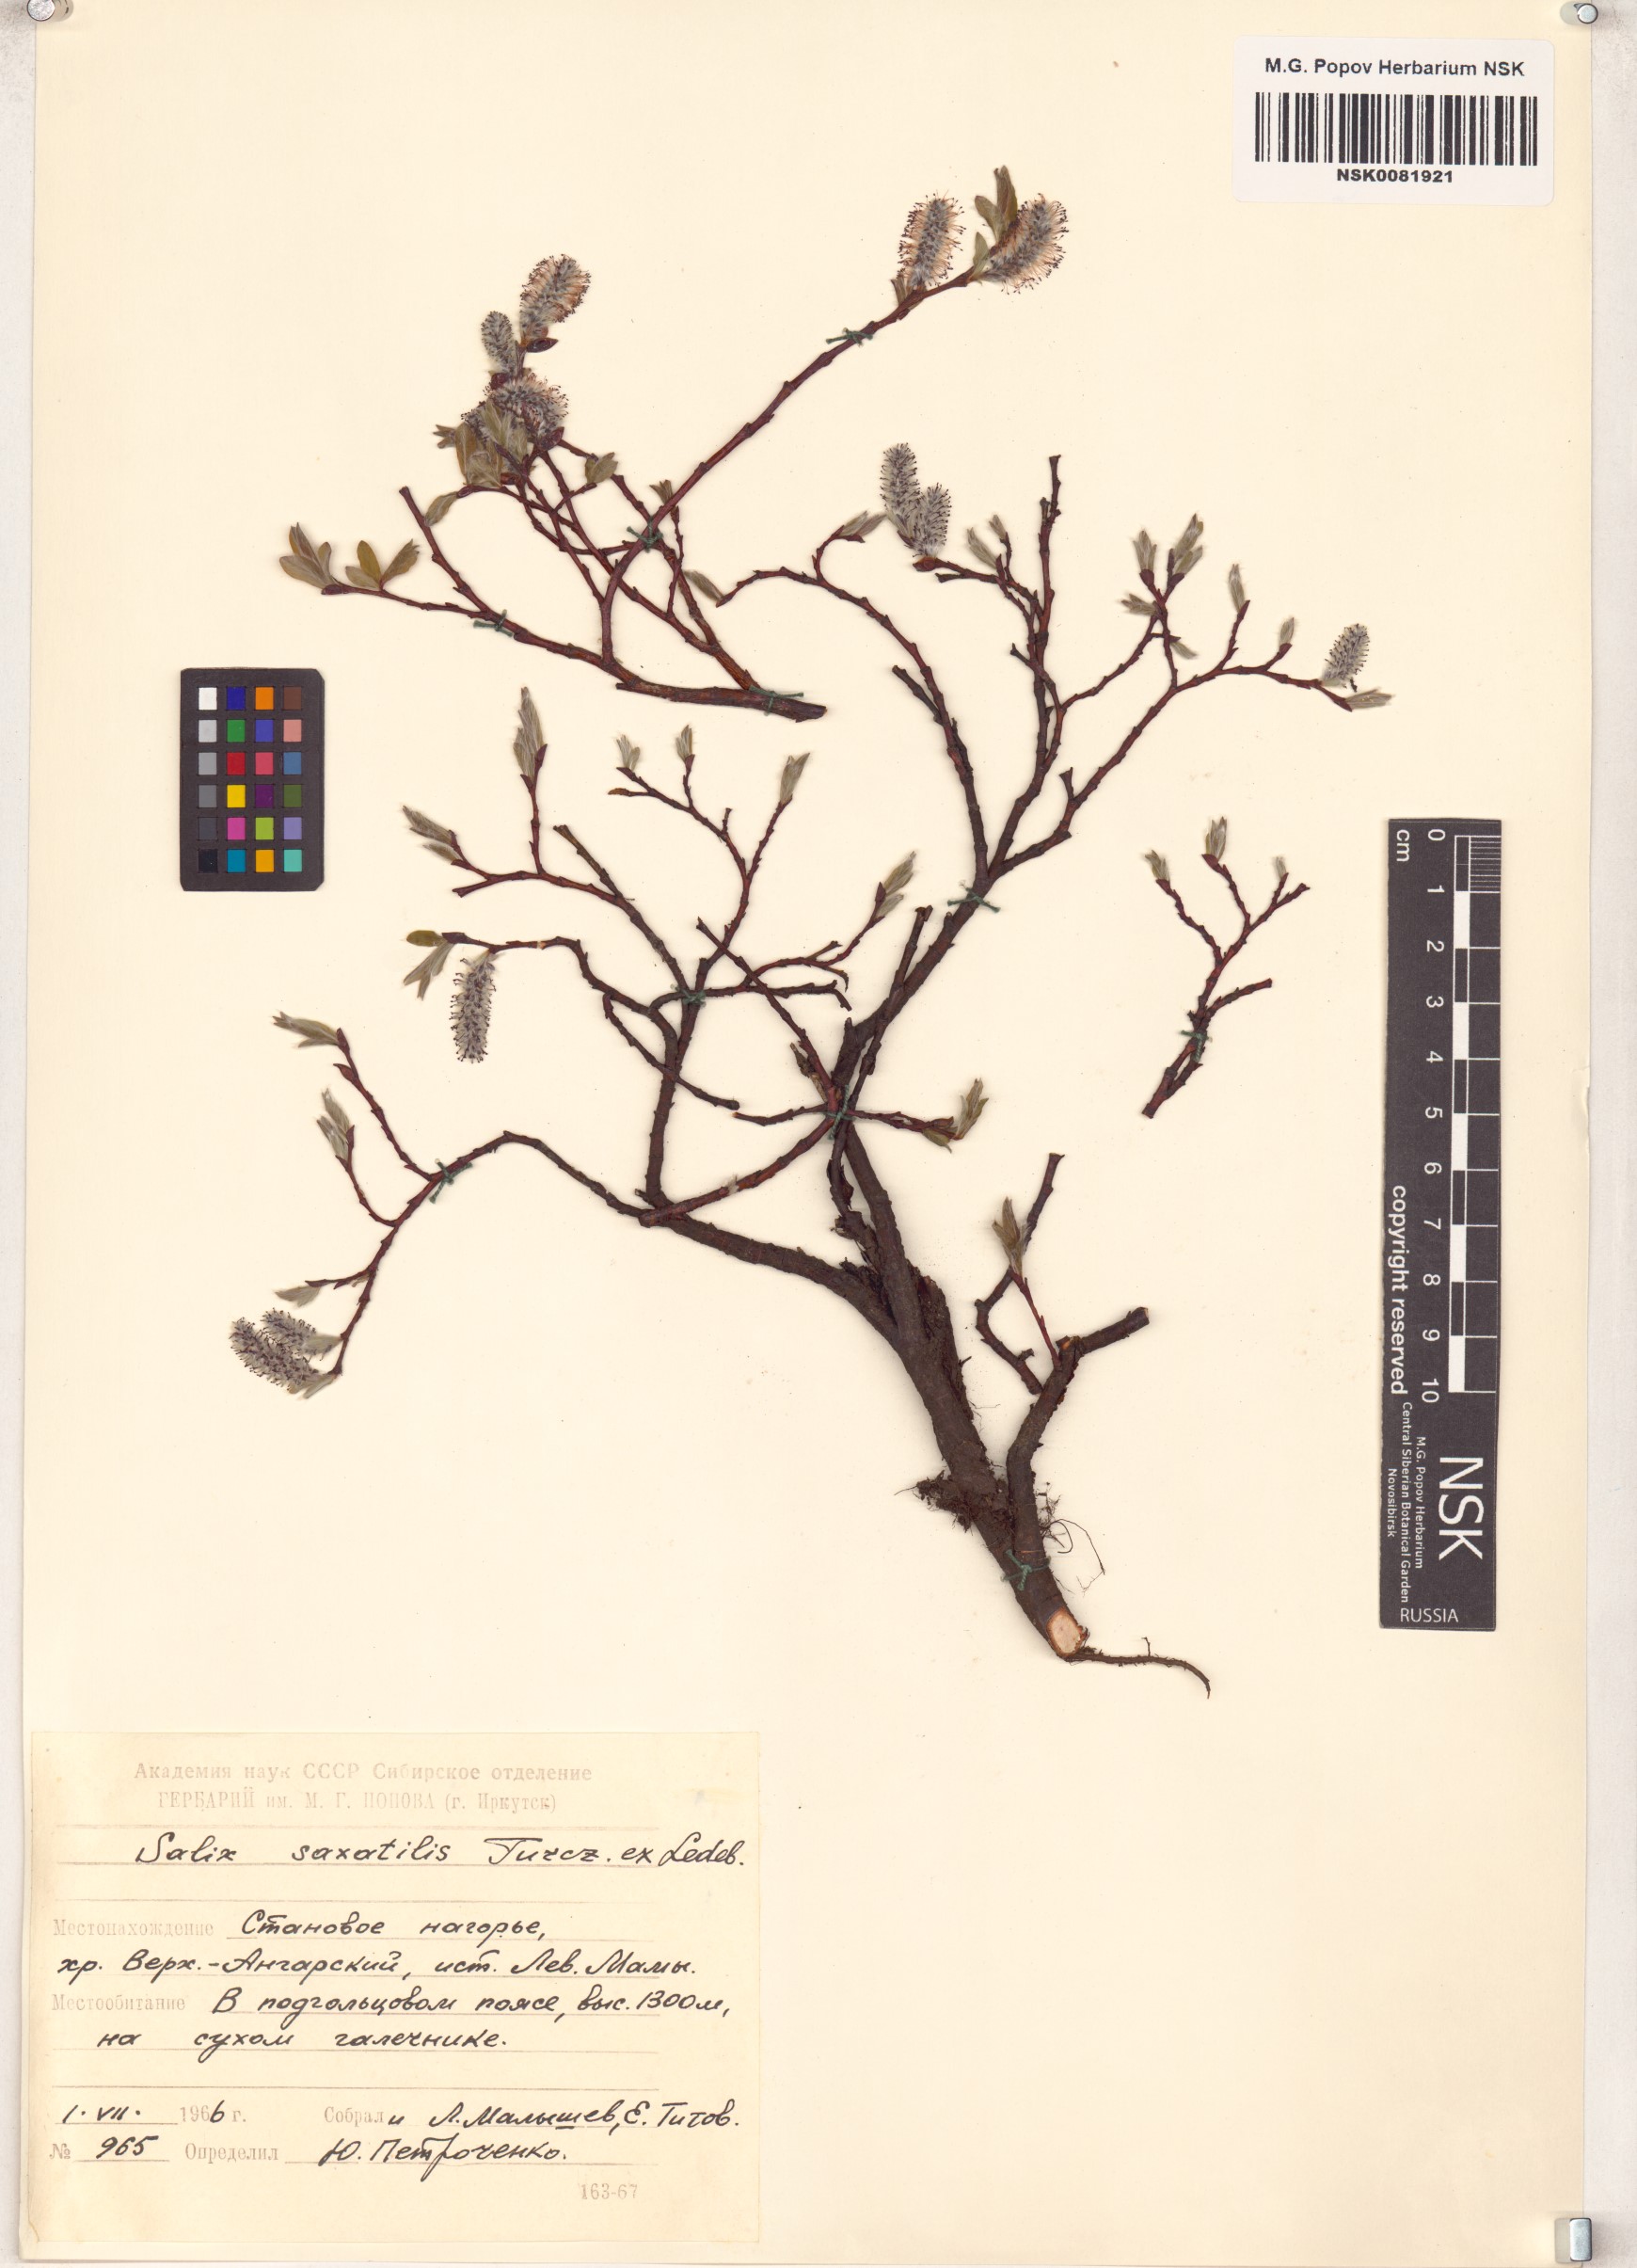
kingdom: Plantae
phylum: Tracheophyta
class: Magnoliopsida
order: Malpighiales
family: Salicaceae
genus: Salix
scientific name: Salix saxatilis
